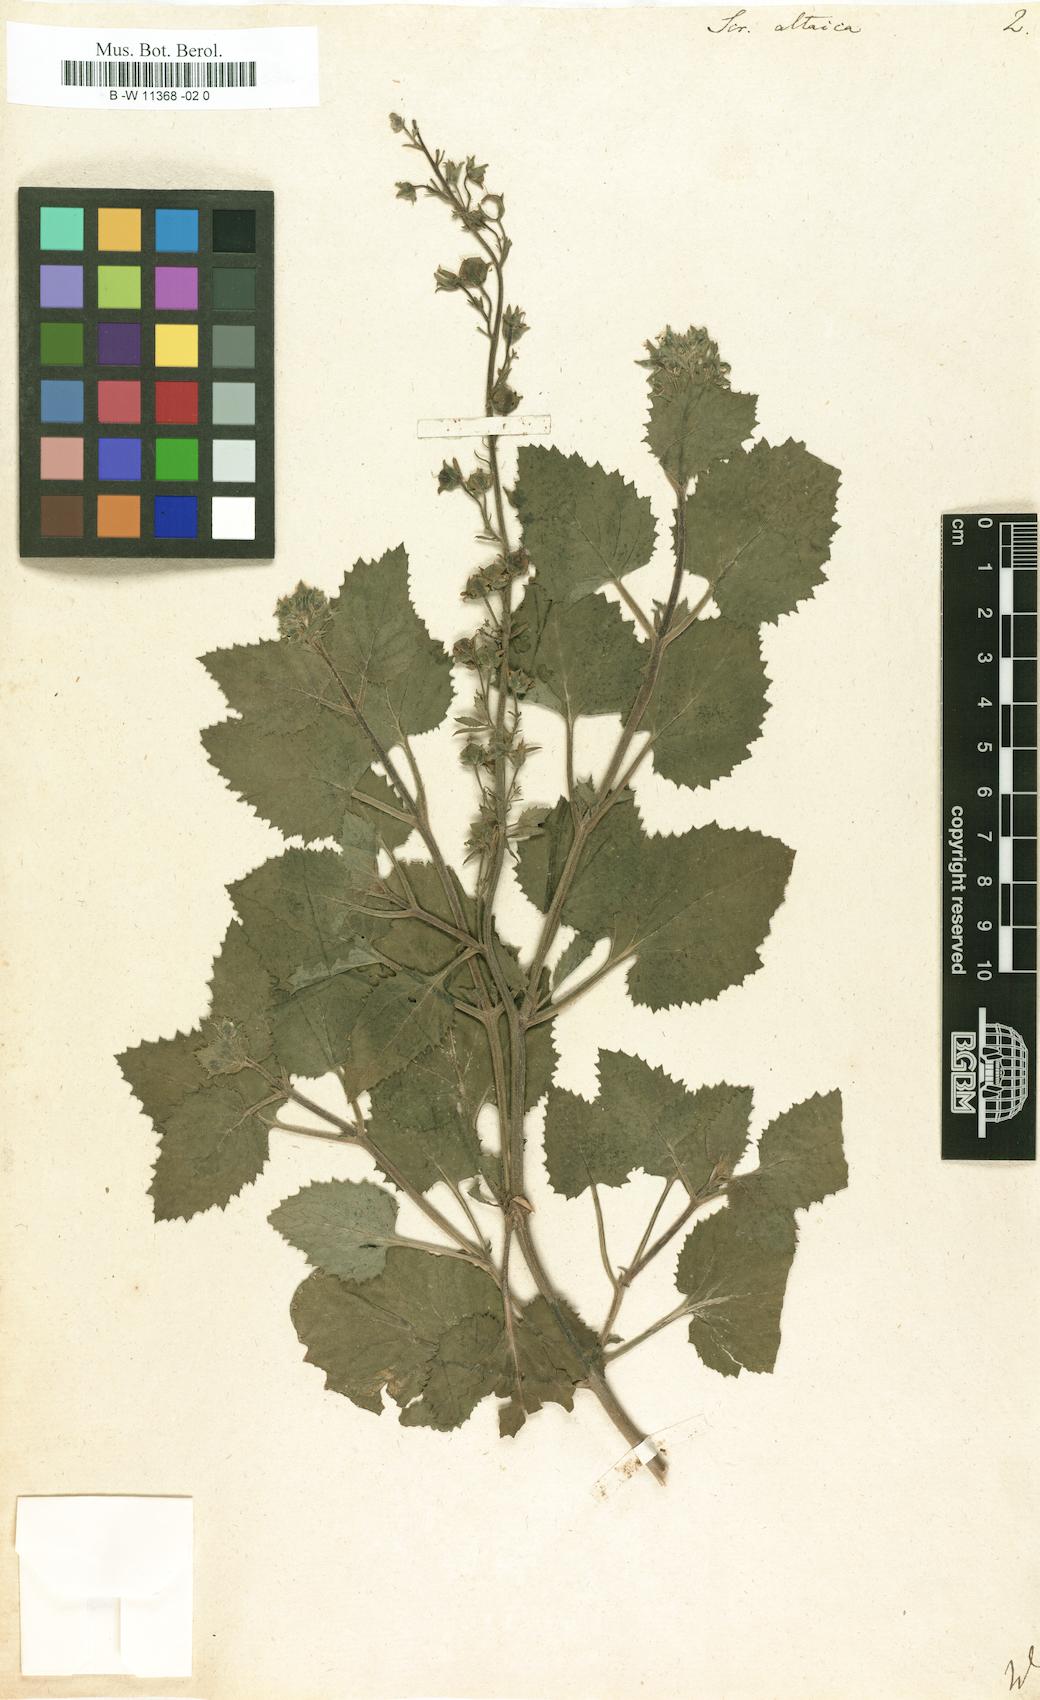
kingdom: Plantae
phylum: Tracheophyta
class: Magnoliopsida
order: Lamiales
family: Scrophulariaceae
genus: Scrophularia
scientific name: Scrophularia altaica
